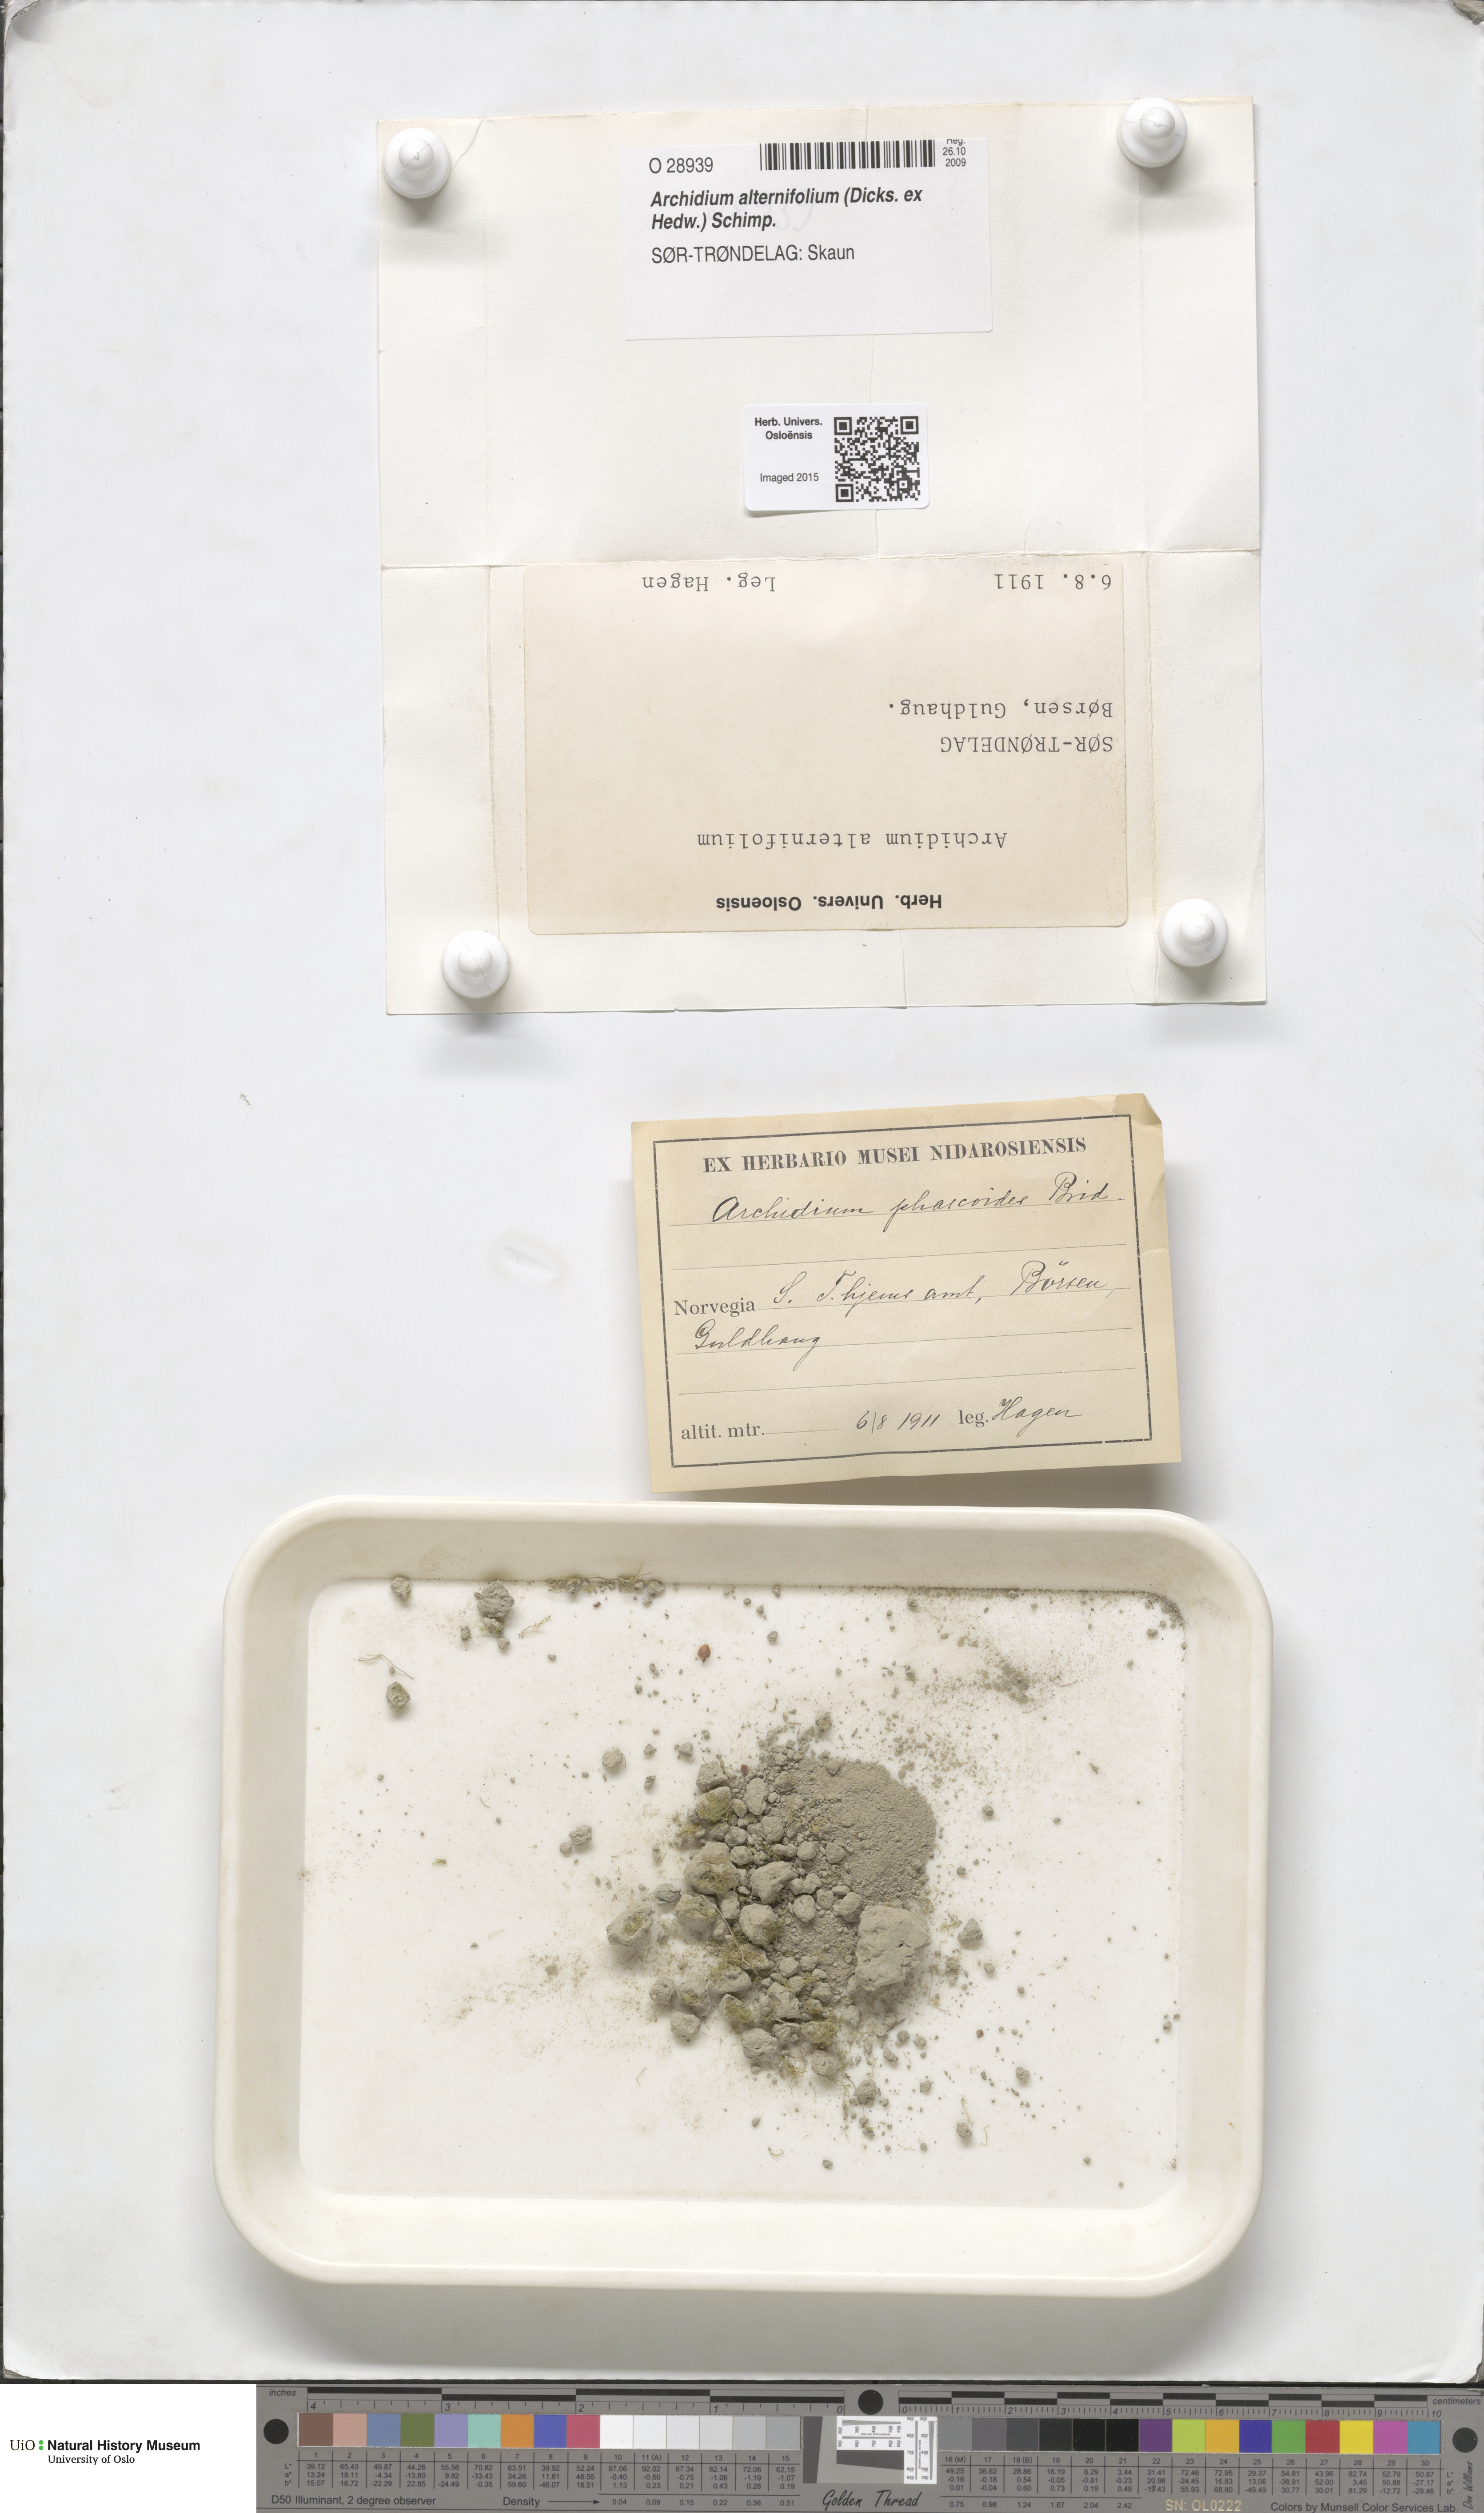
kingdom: Plantae
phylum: Bryophyta
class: Bryopsida
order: Archidiales
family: Archidiaceae
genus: Archidium
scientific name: Archidium alternifolium
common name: Clay earth-moss
